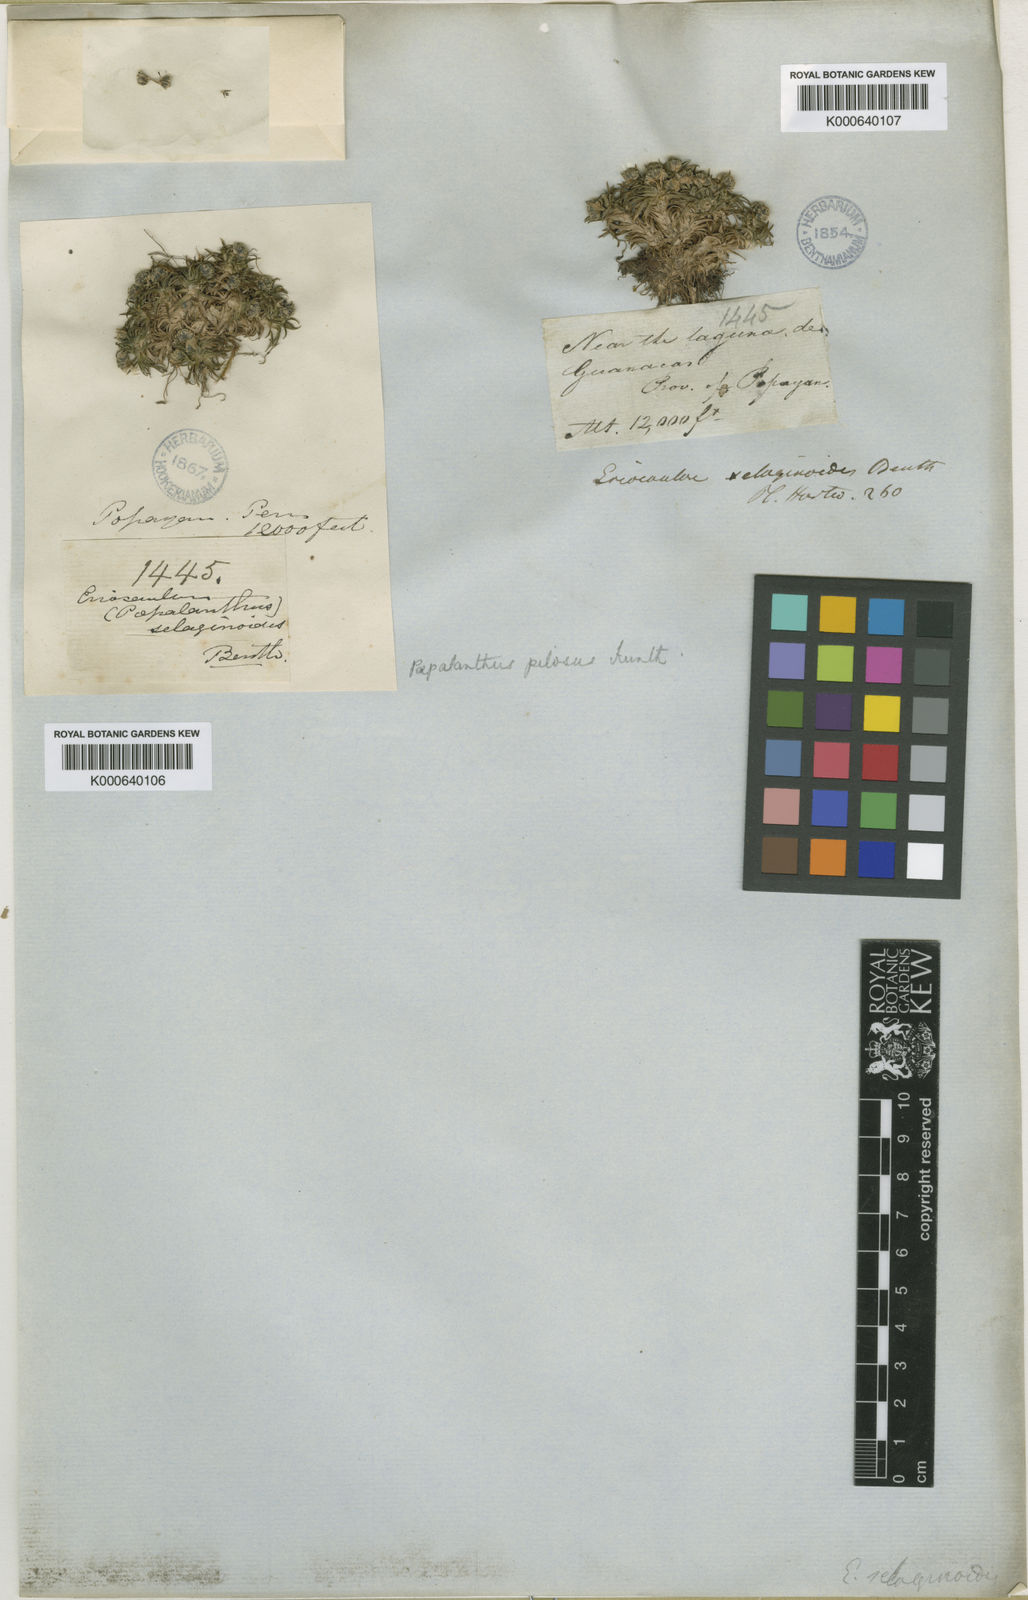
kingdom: Plantae
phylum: Tracheophyta
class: Liliopsida
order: Poales
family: Eriocaulaceae
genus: Paepalanthus
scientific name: Paepalanthus pilosus
